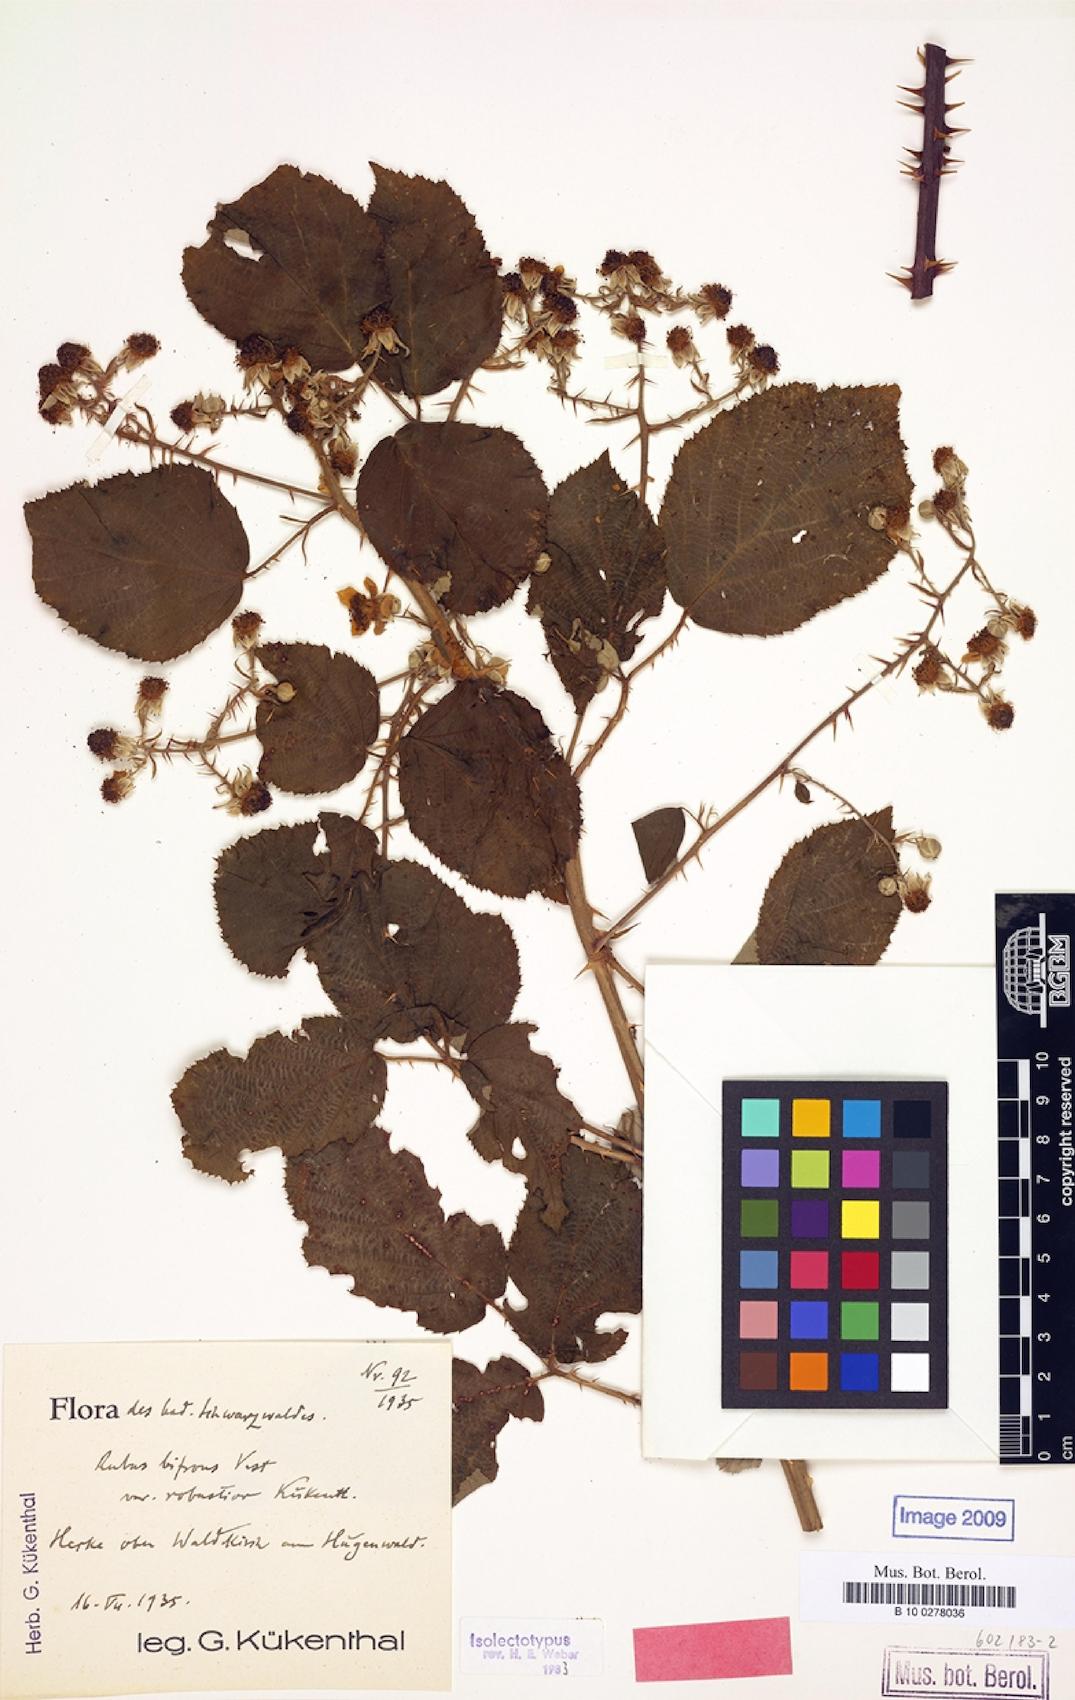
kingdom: Plantae
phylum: Tracheophyta
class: Magnoliopsida
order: Rosales
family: Rosaceae
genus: Rubus
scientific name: Rubus bifrons
